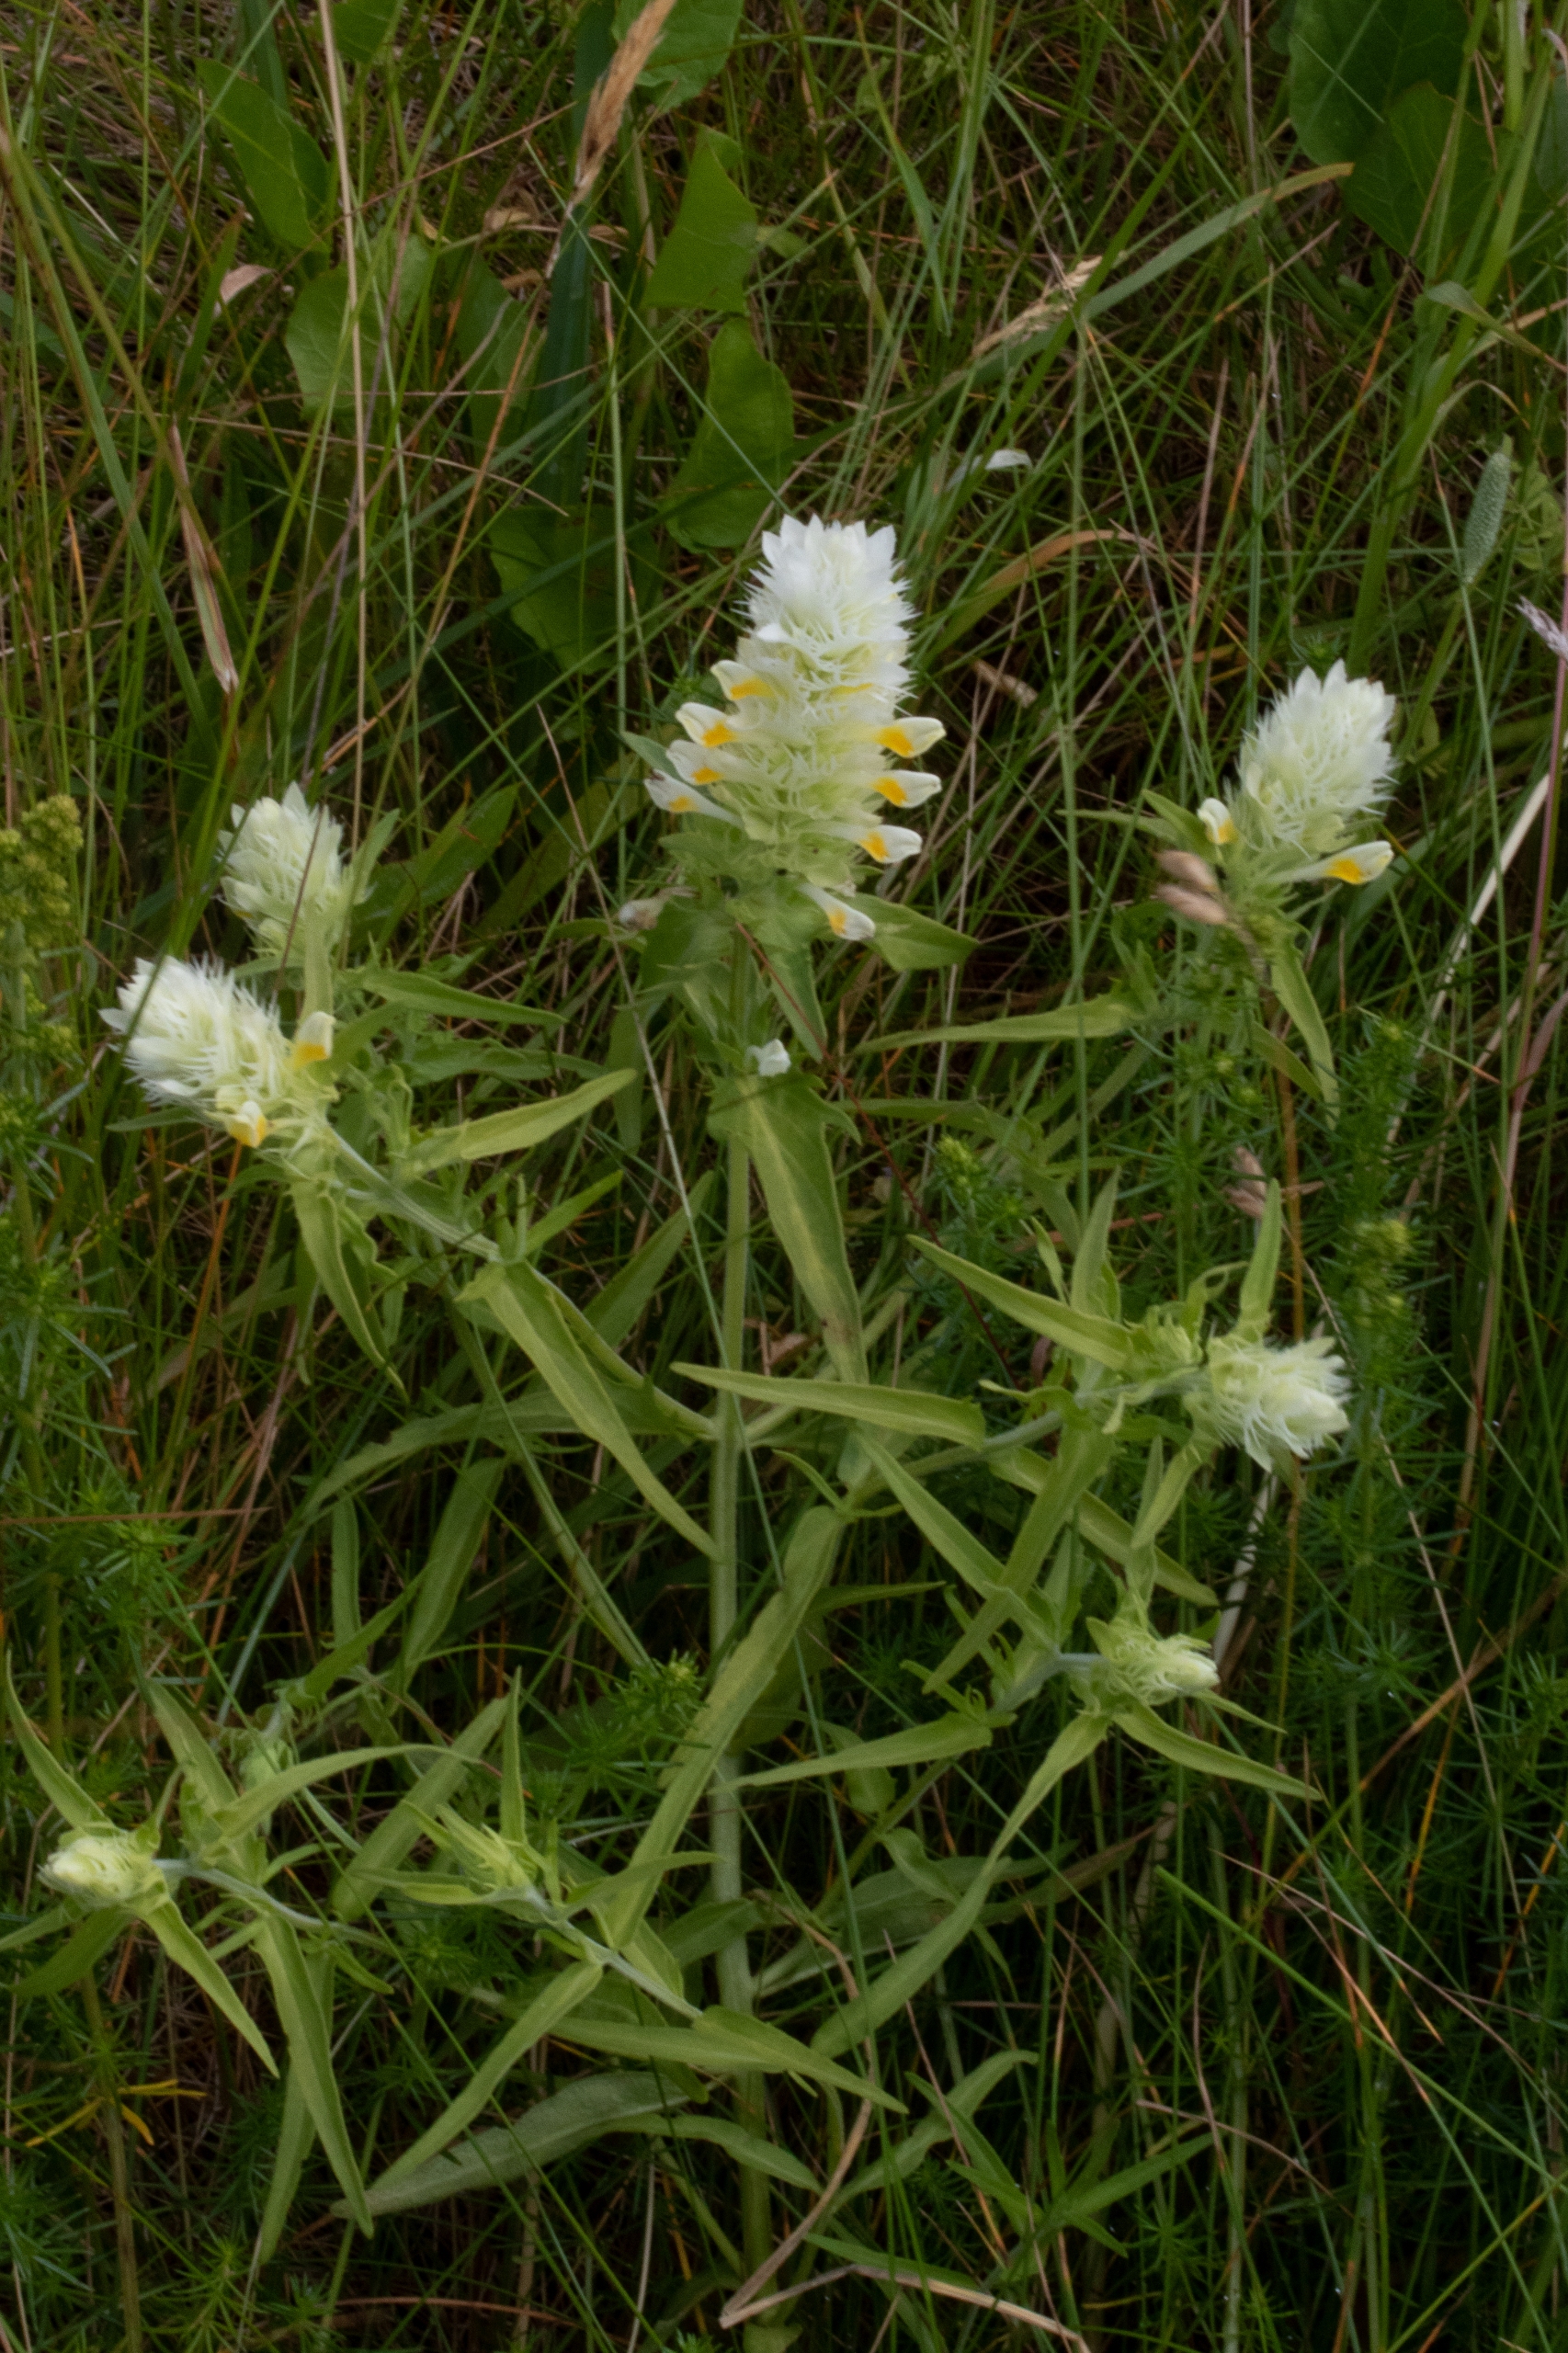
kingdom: Plantae
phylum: Tracheophyta
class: Magnoliopsida
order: Lamiales
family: Orobanchaceae
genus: Melampyrum
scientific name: Melampyrum arvense
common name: Ager-kohvede
